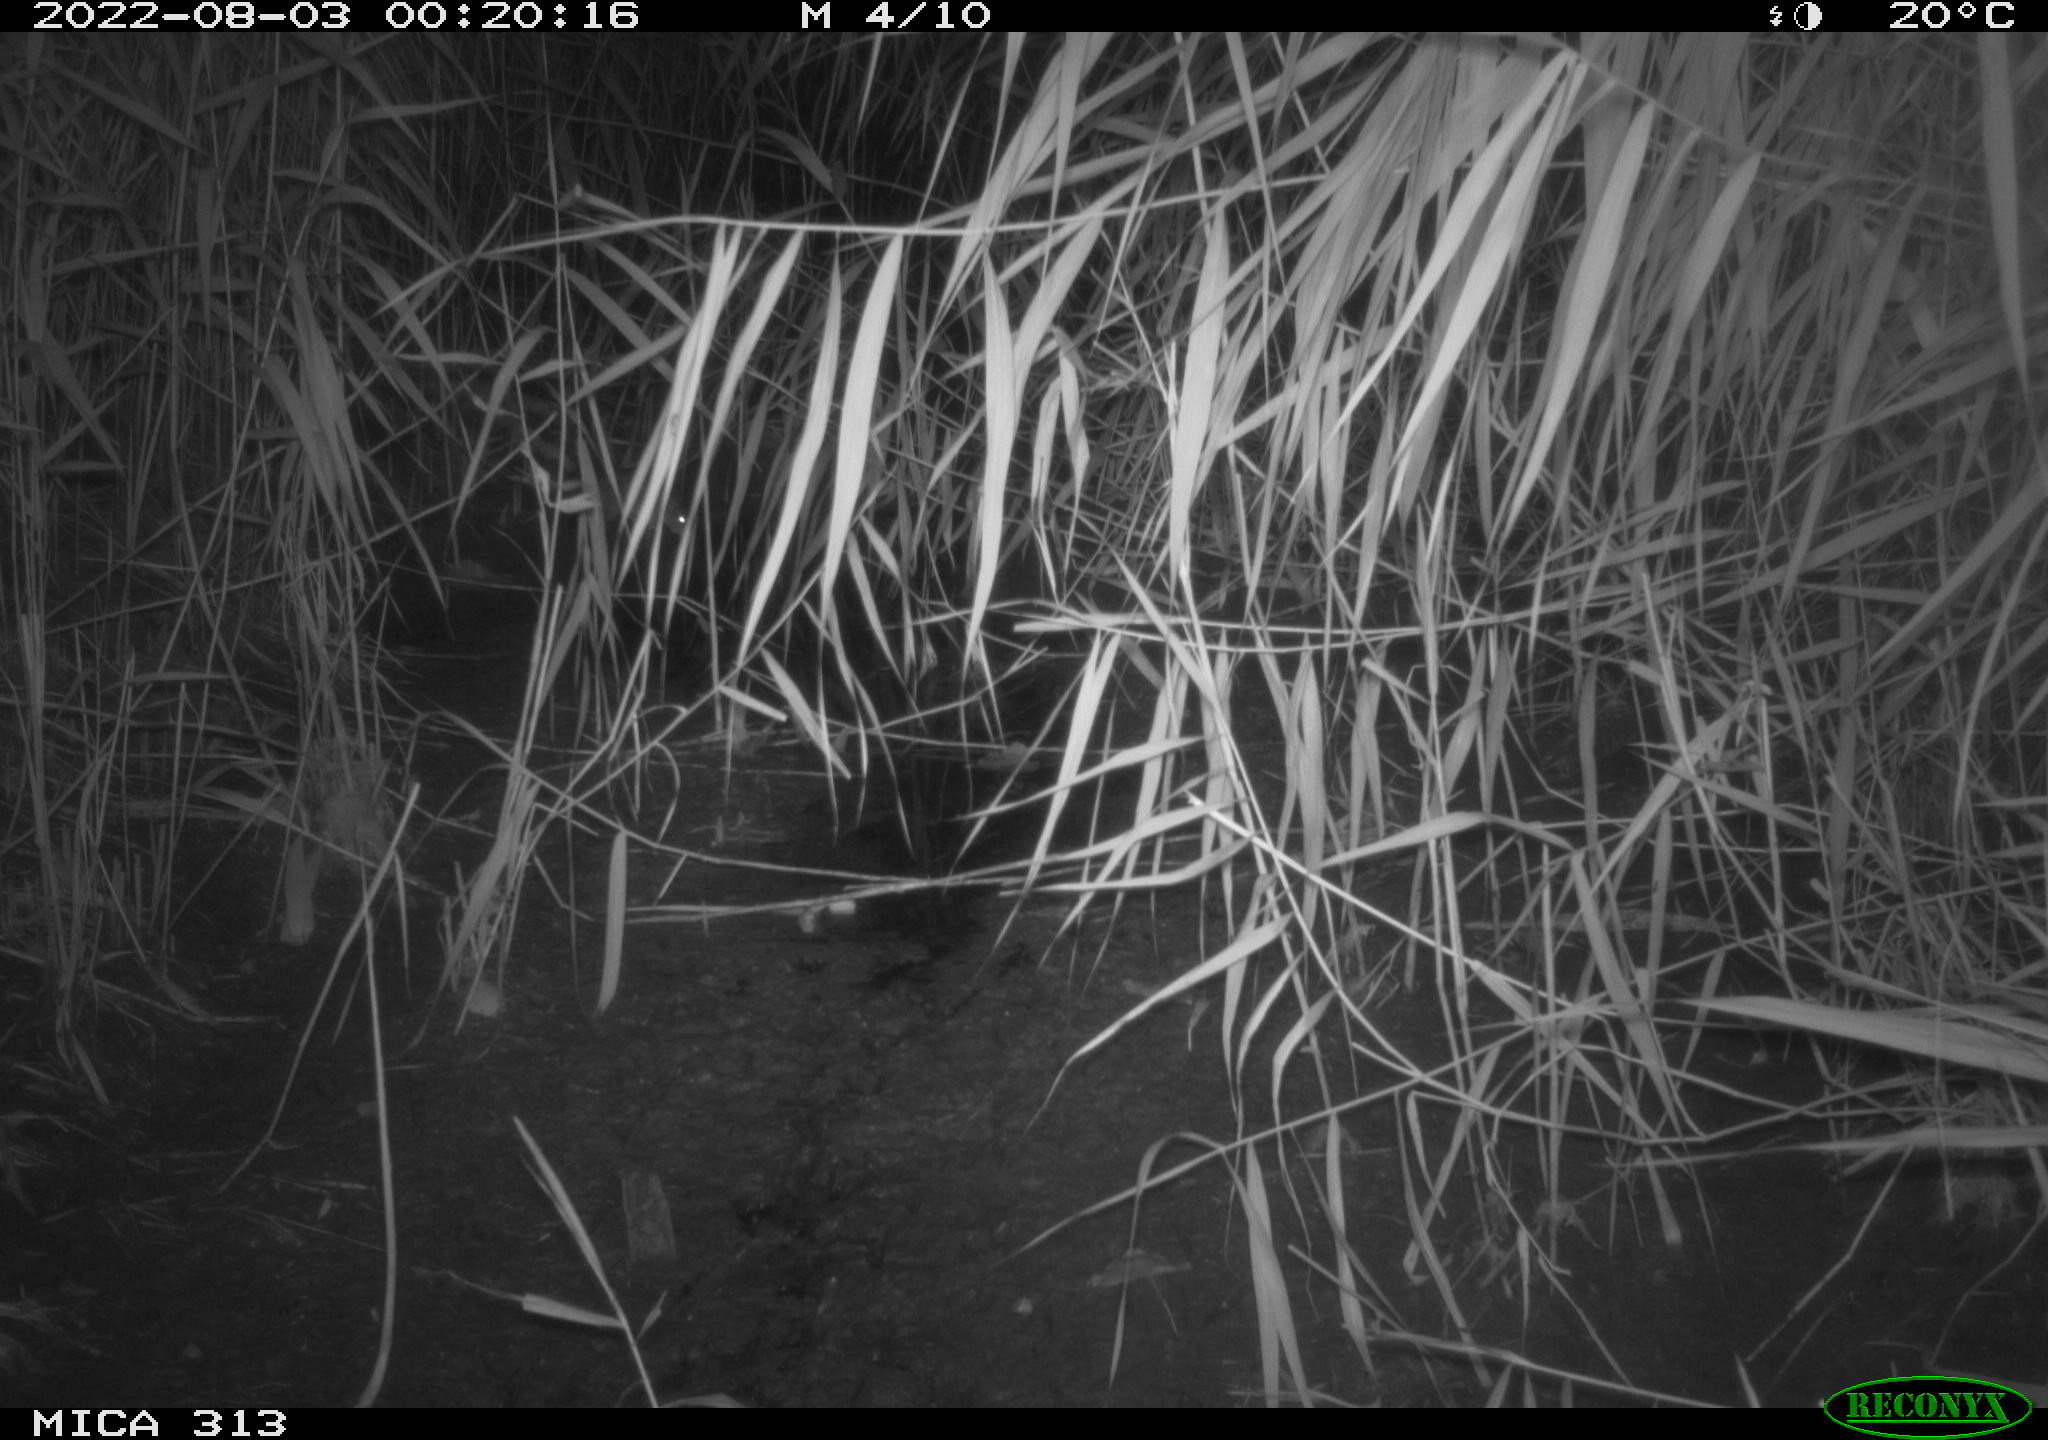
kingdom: Animalia
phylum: Chordata
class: Mammalia
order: Rodentia
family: Muridae
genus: Rattus
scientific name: Rattus norvegicus
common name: Brown rat
